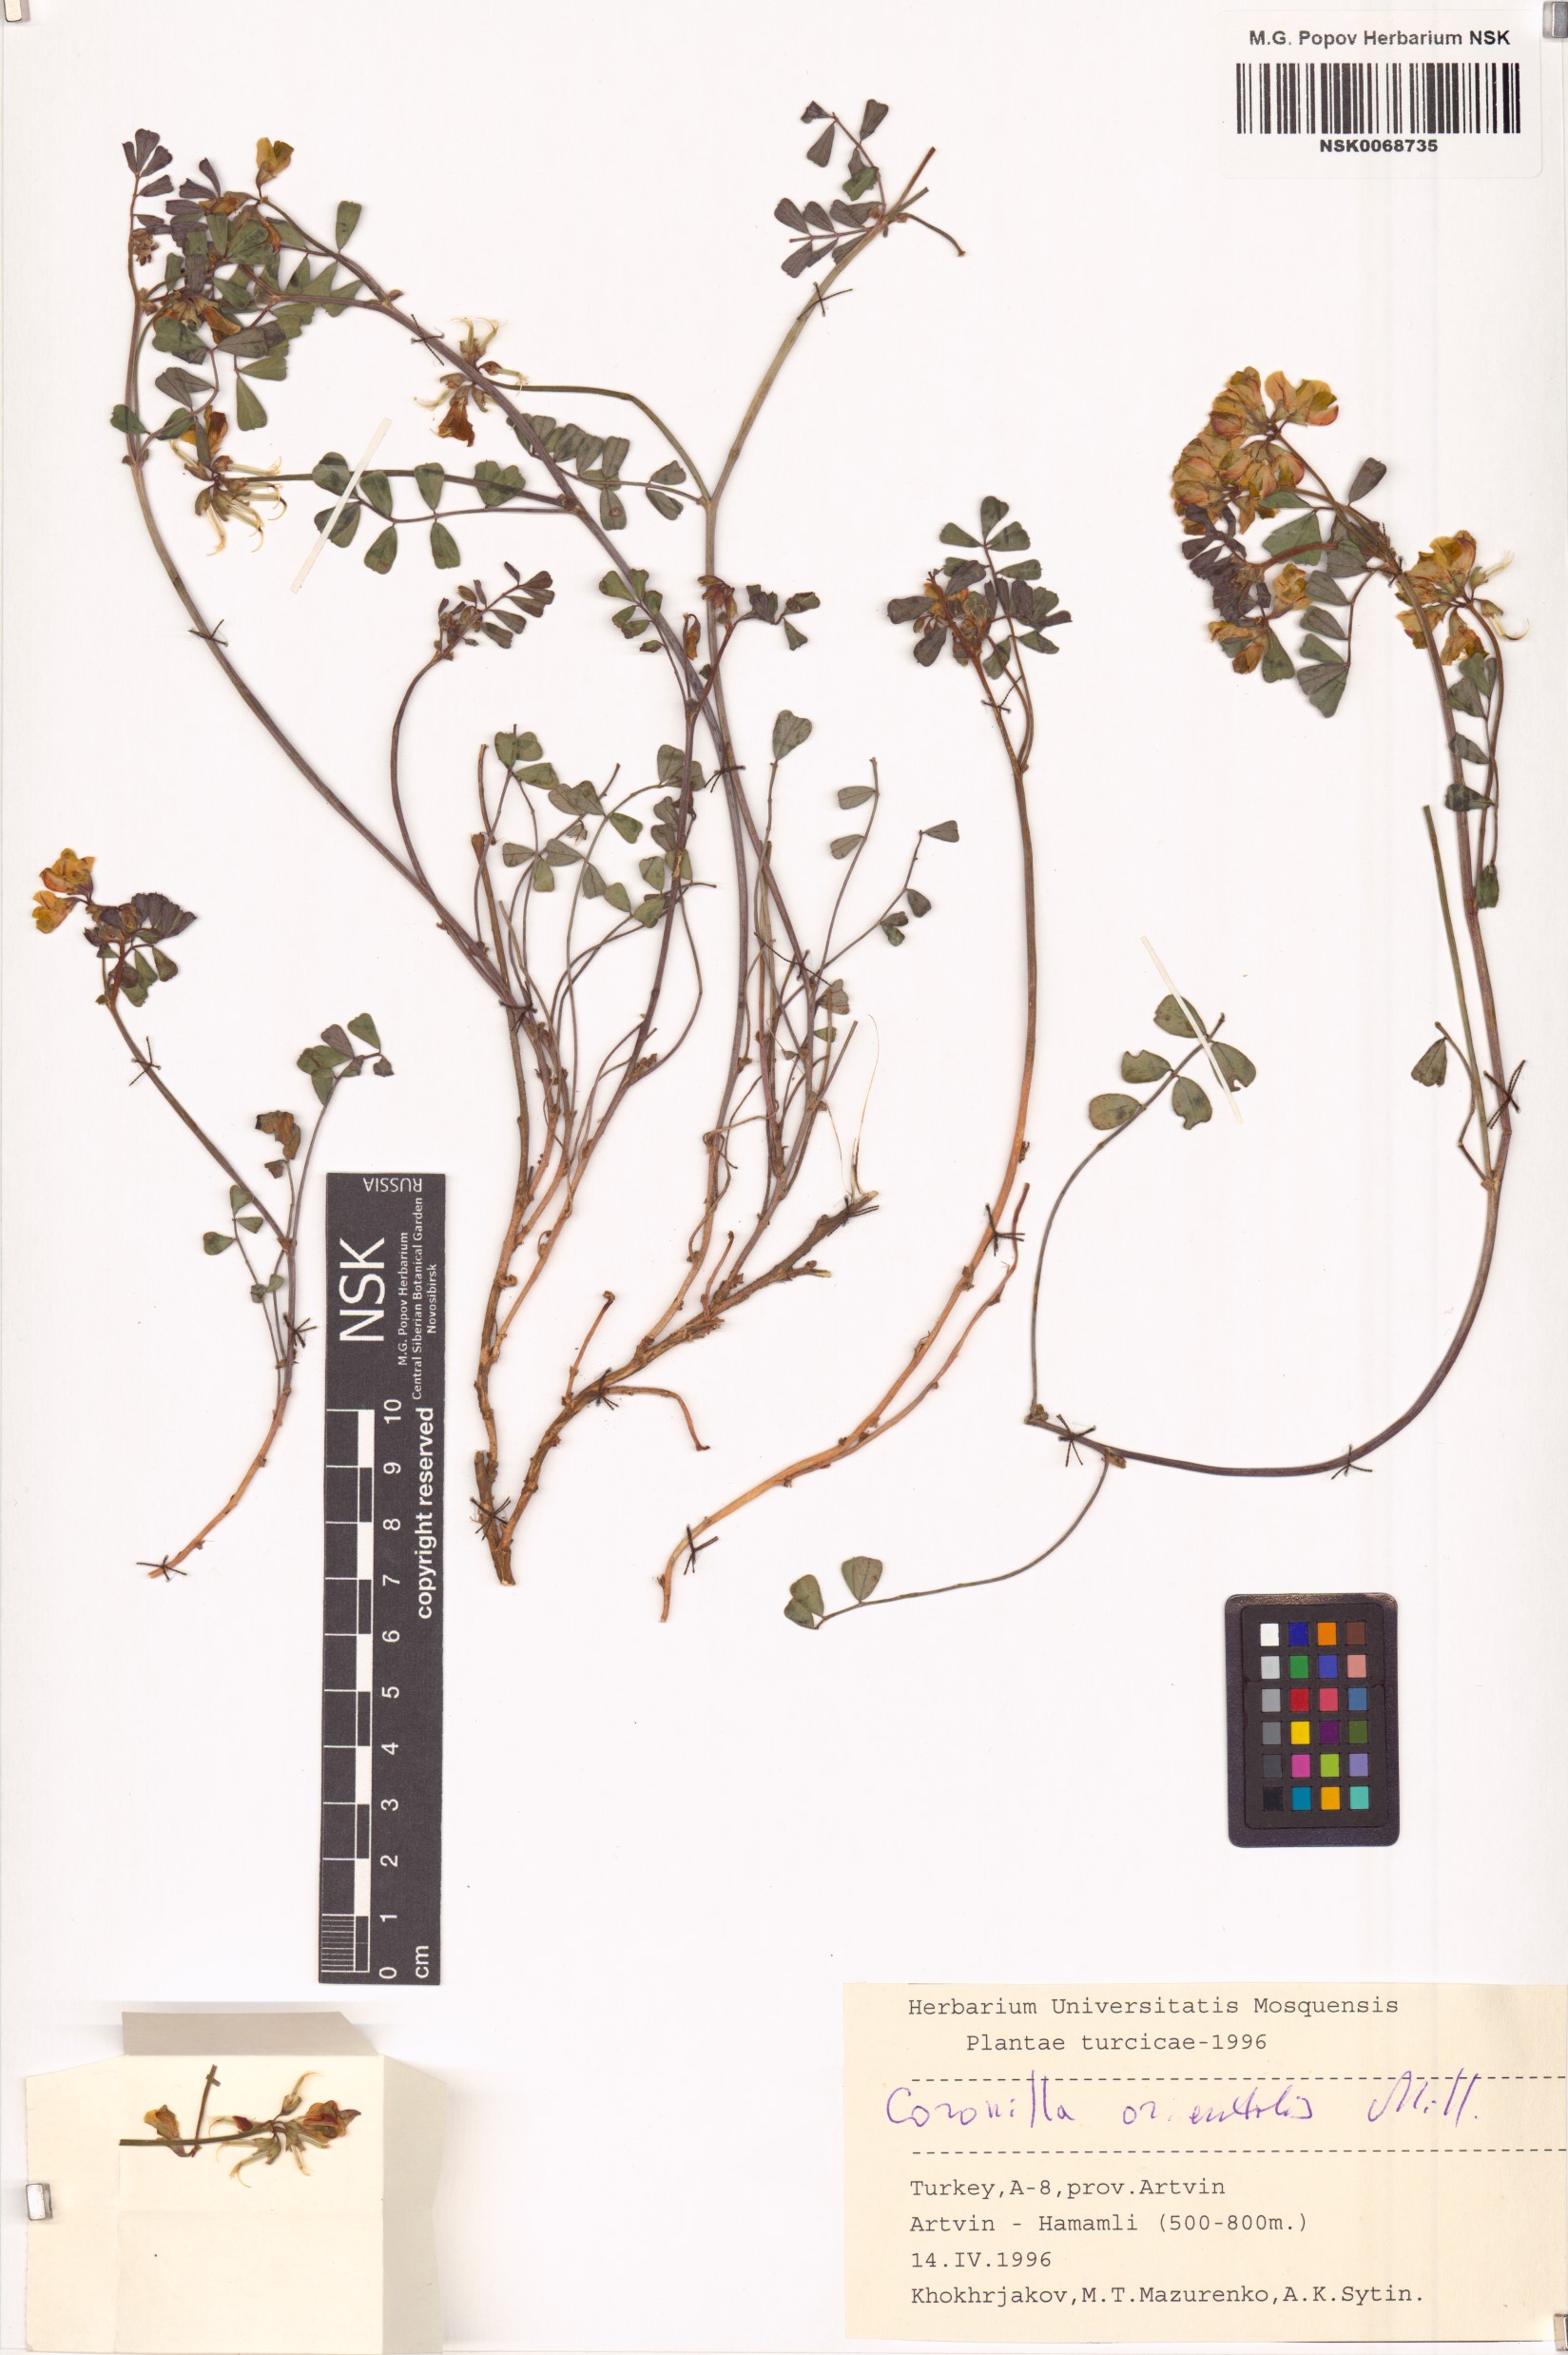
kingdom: Plantae
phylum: Tracheophyta
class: Magnoliopsida
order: Fabales
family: Fabaceae
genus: Coronilla
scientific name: Coronilla orientalis
